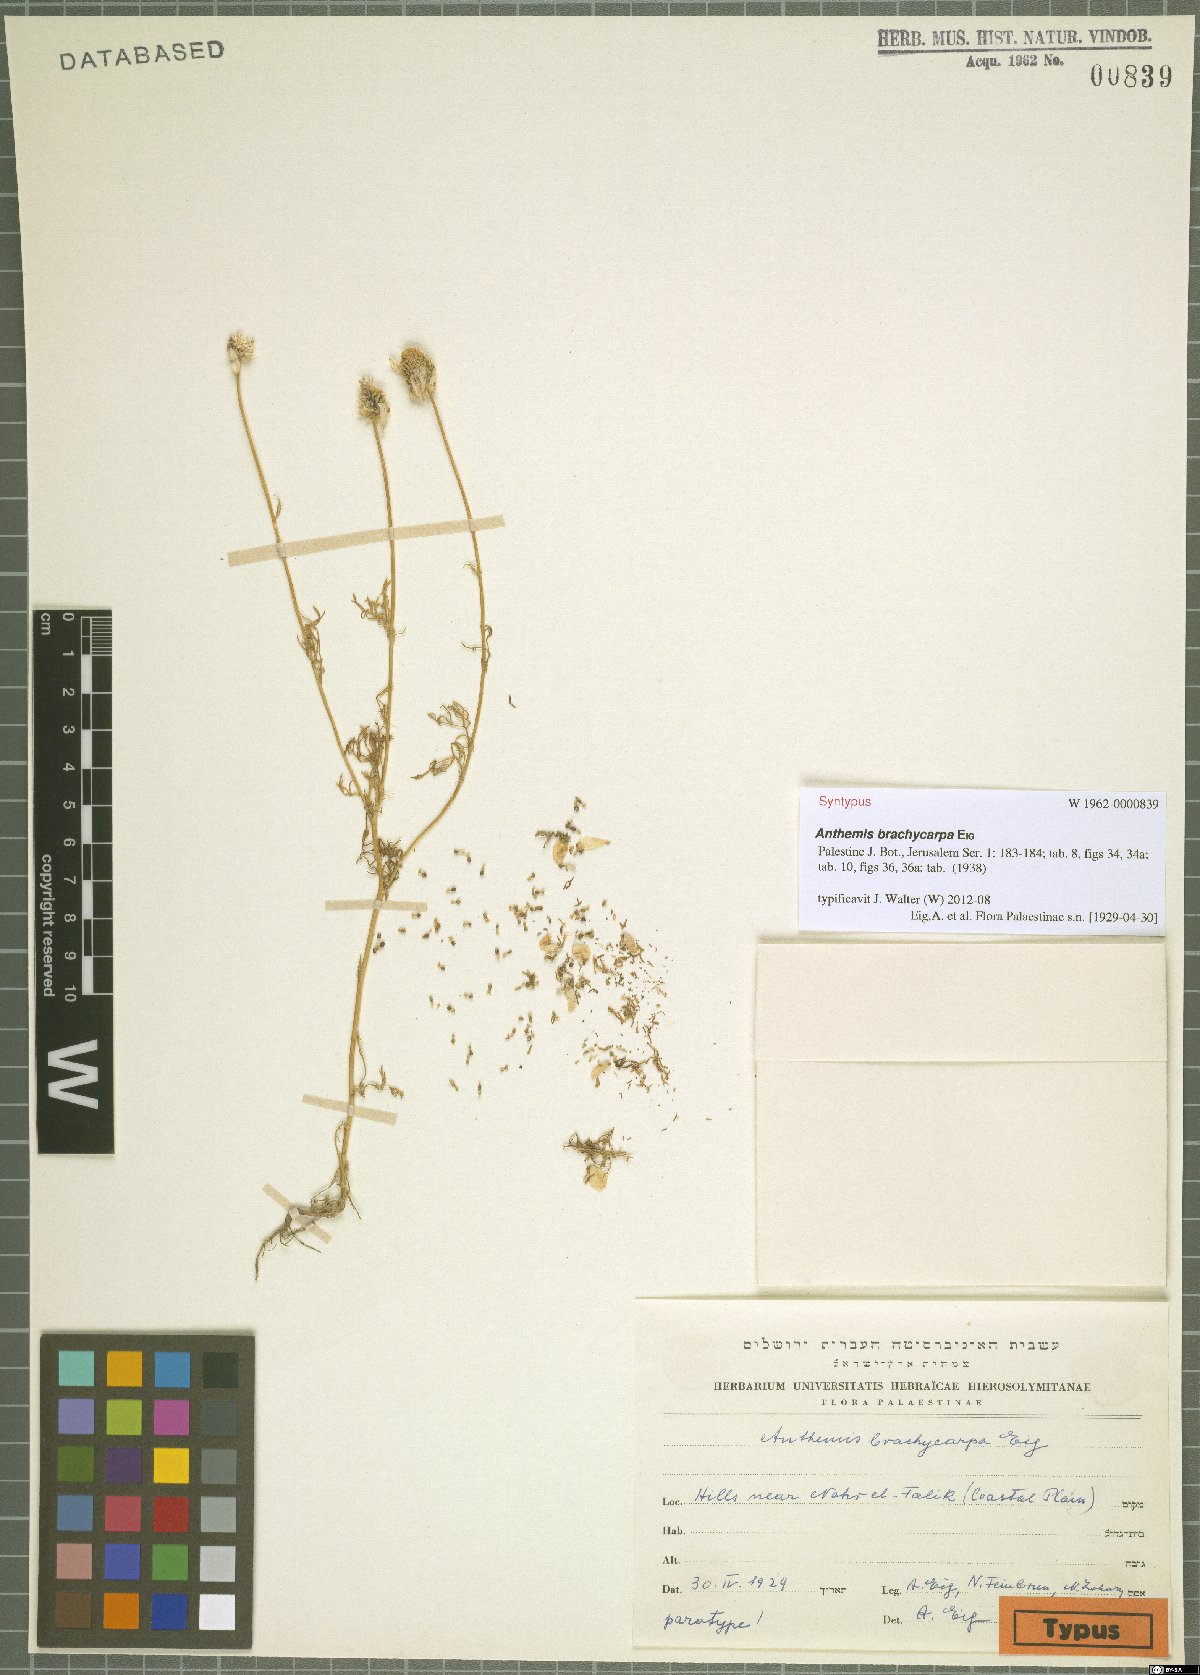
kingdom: Plantae
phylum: Tracheophyta
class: Magnoliopsida
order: Asterales
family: Asteraceae
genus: Anthemis
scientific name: Anthemis brachycarpa
